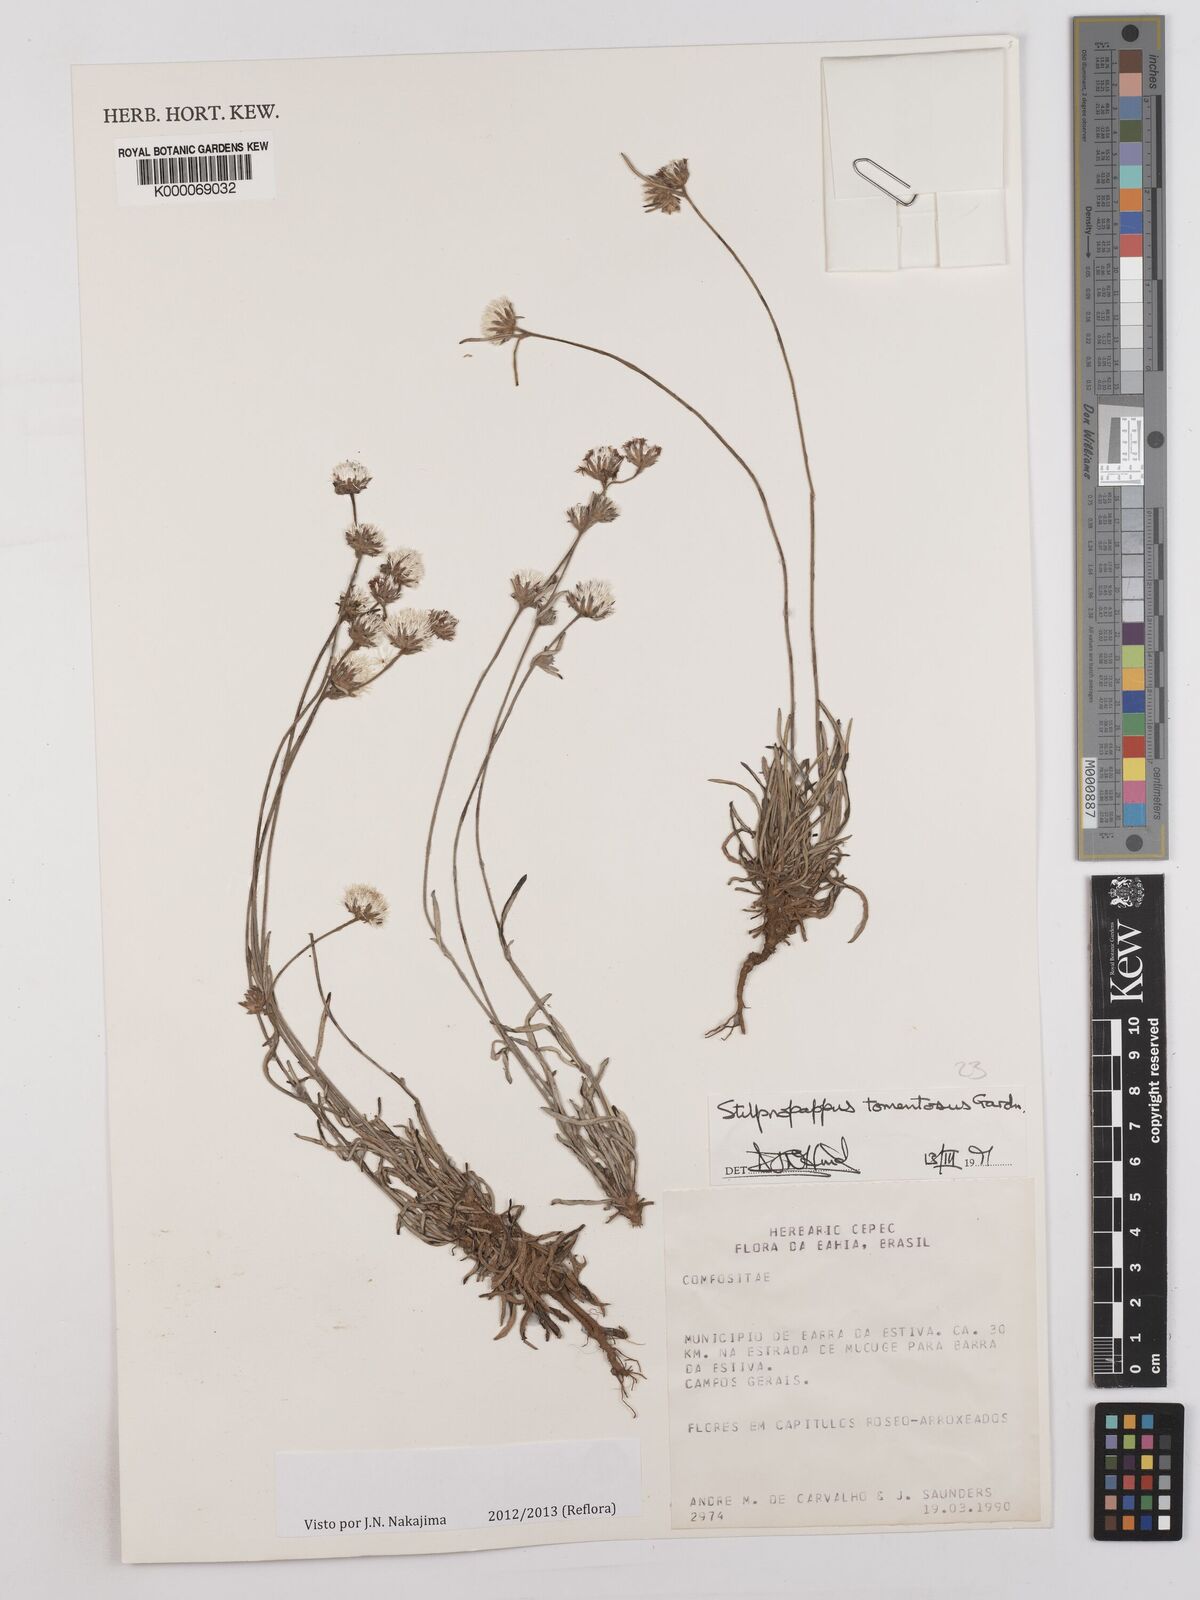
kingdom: Plantae
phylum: Tracheophyta
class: Magnoliopsida
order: Asterales
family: Asteraceae
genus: Stilpnopappus
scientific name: Stilpnopappus tomentosus
